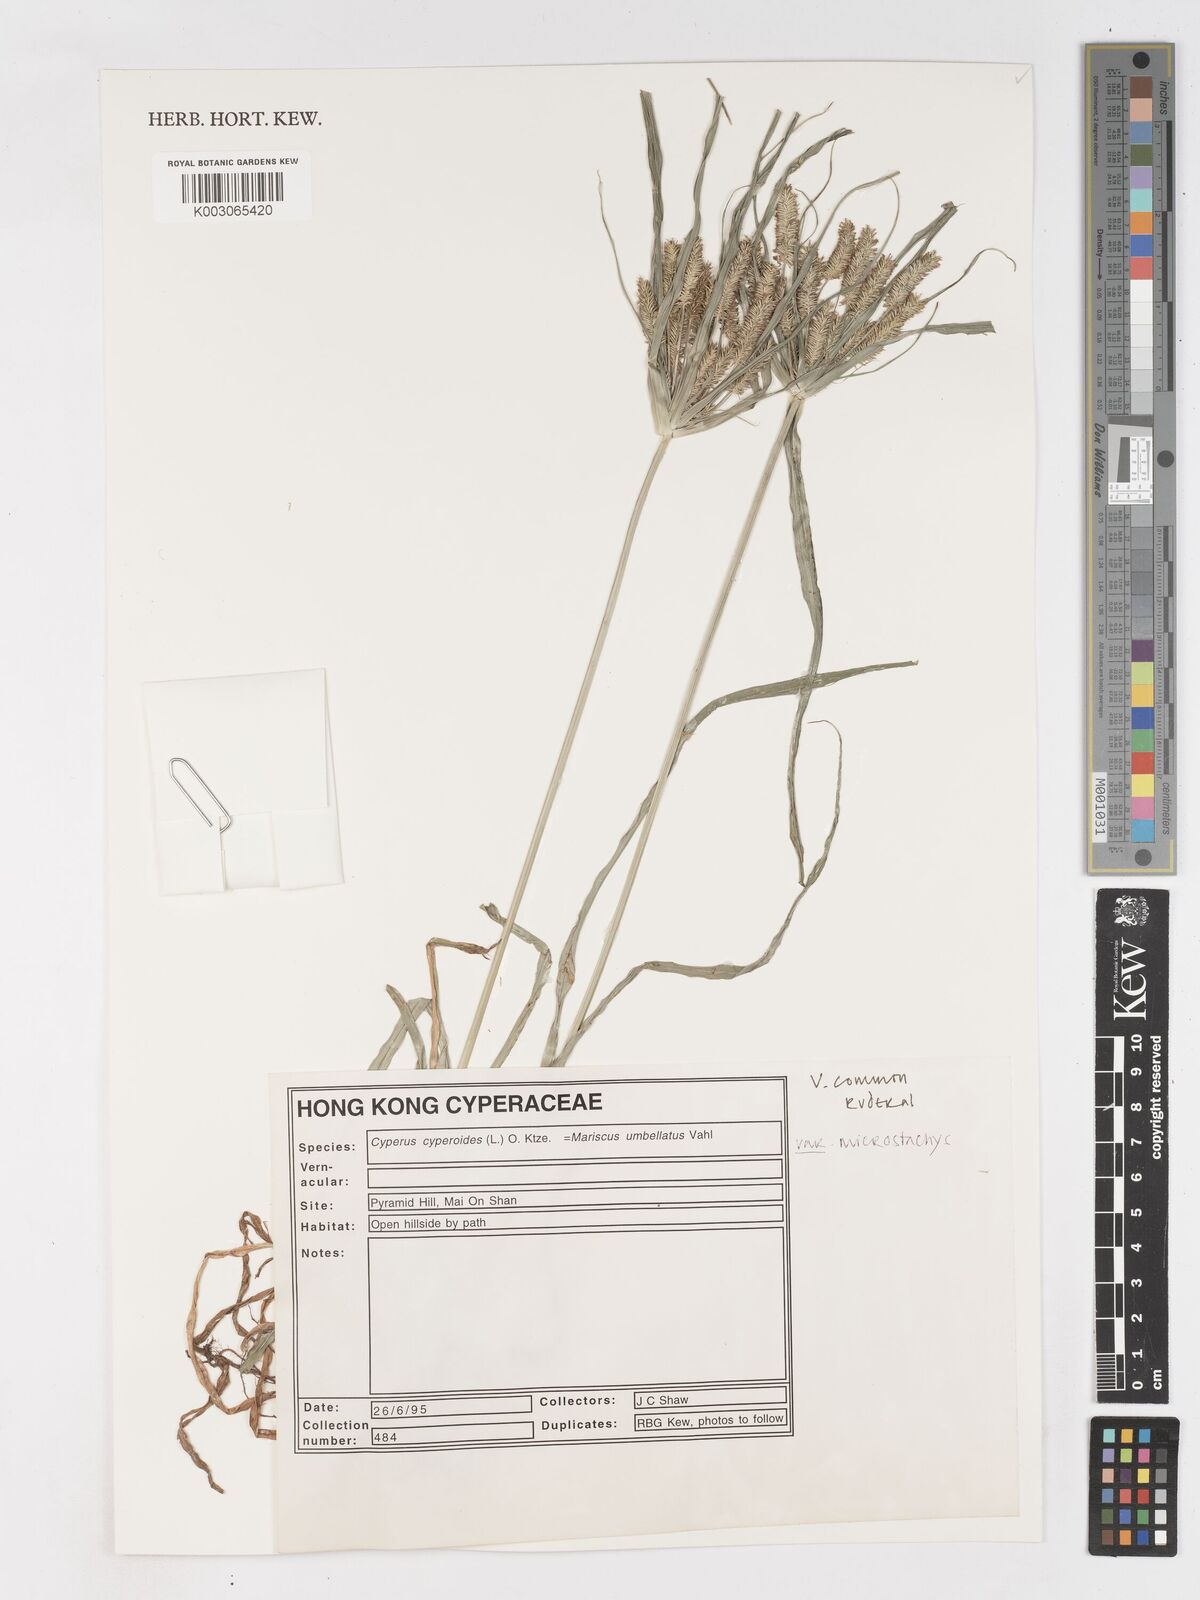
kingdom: Plantae
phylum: Tracheophyta
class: Liliopsida
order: Poales
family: Cyperaceae
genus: Cyperus
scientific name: Cyperus cyperoides
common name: Pacific island flat sedge
